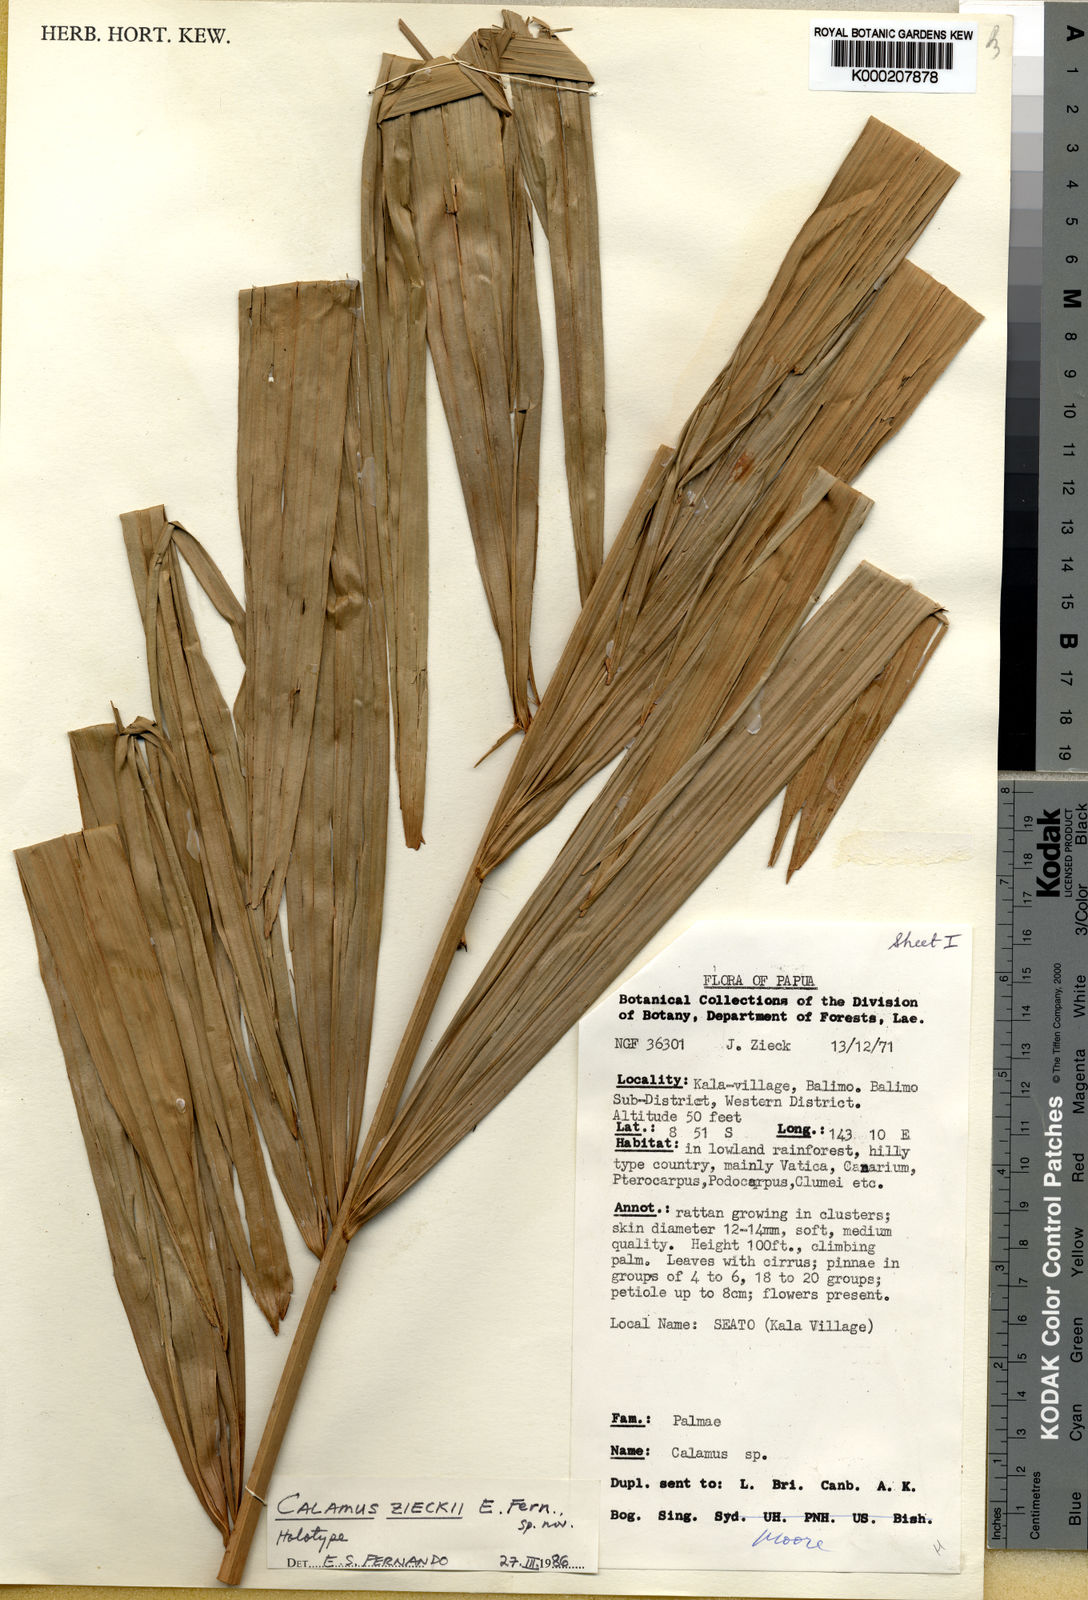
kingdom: Plantae
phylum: Tracheophyta
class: Liliopsida
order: Arecales
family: Arecaceae
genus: Calamus
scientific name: Calamus zieckii
